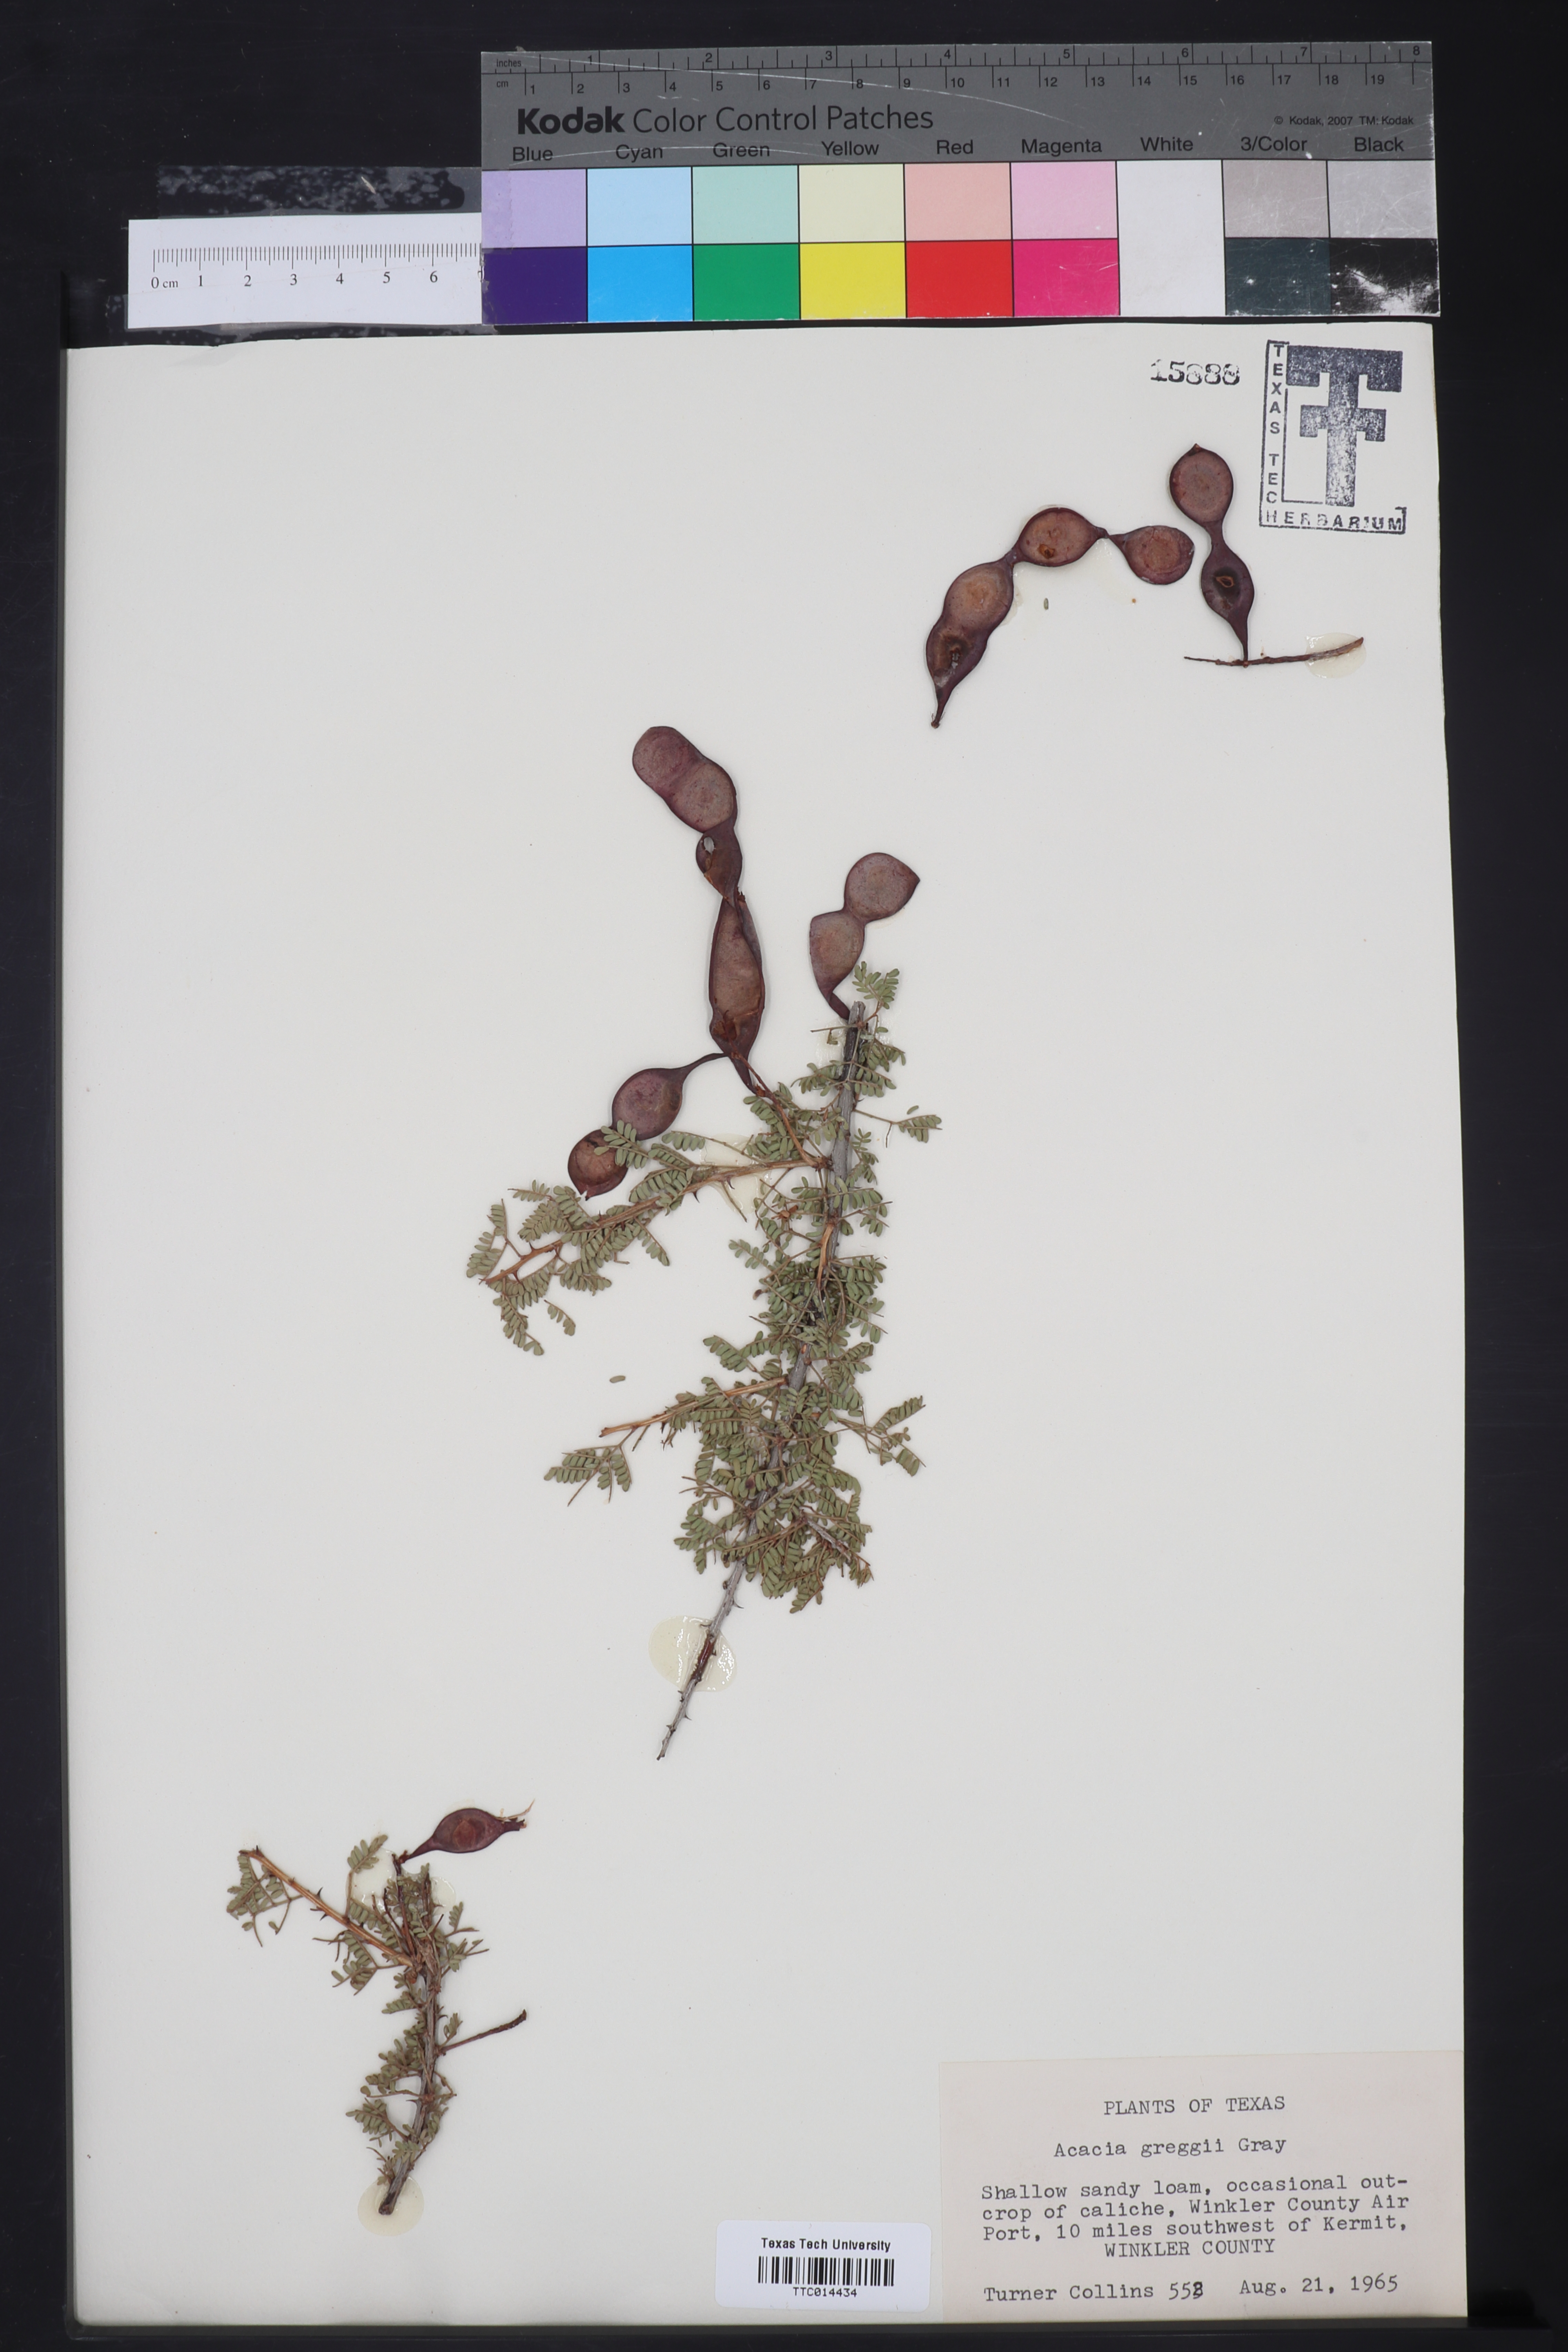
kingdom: Plantae
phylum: Tracheophyta
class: Magnoliopsida
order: Fabales
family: Fabaceae
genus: Senegalia
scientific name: Senegalia greggii
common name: Texas-mimosa
